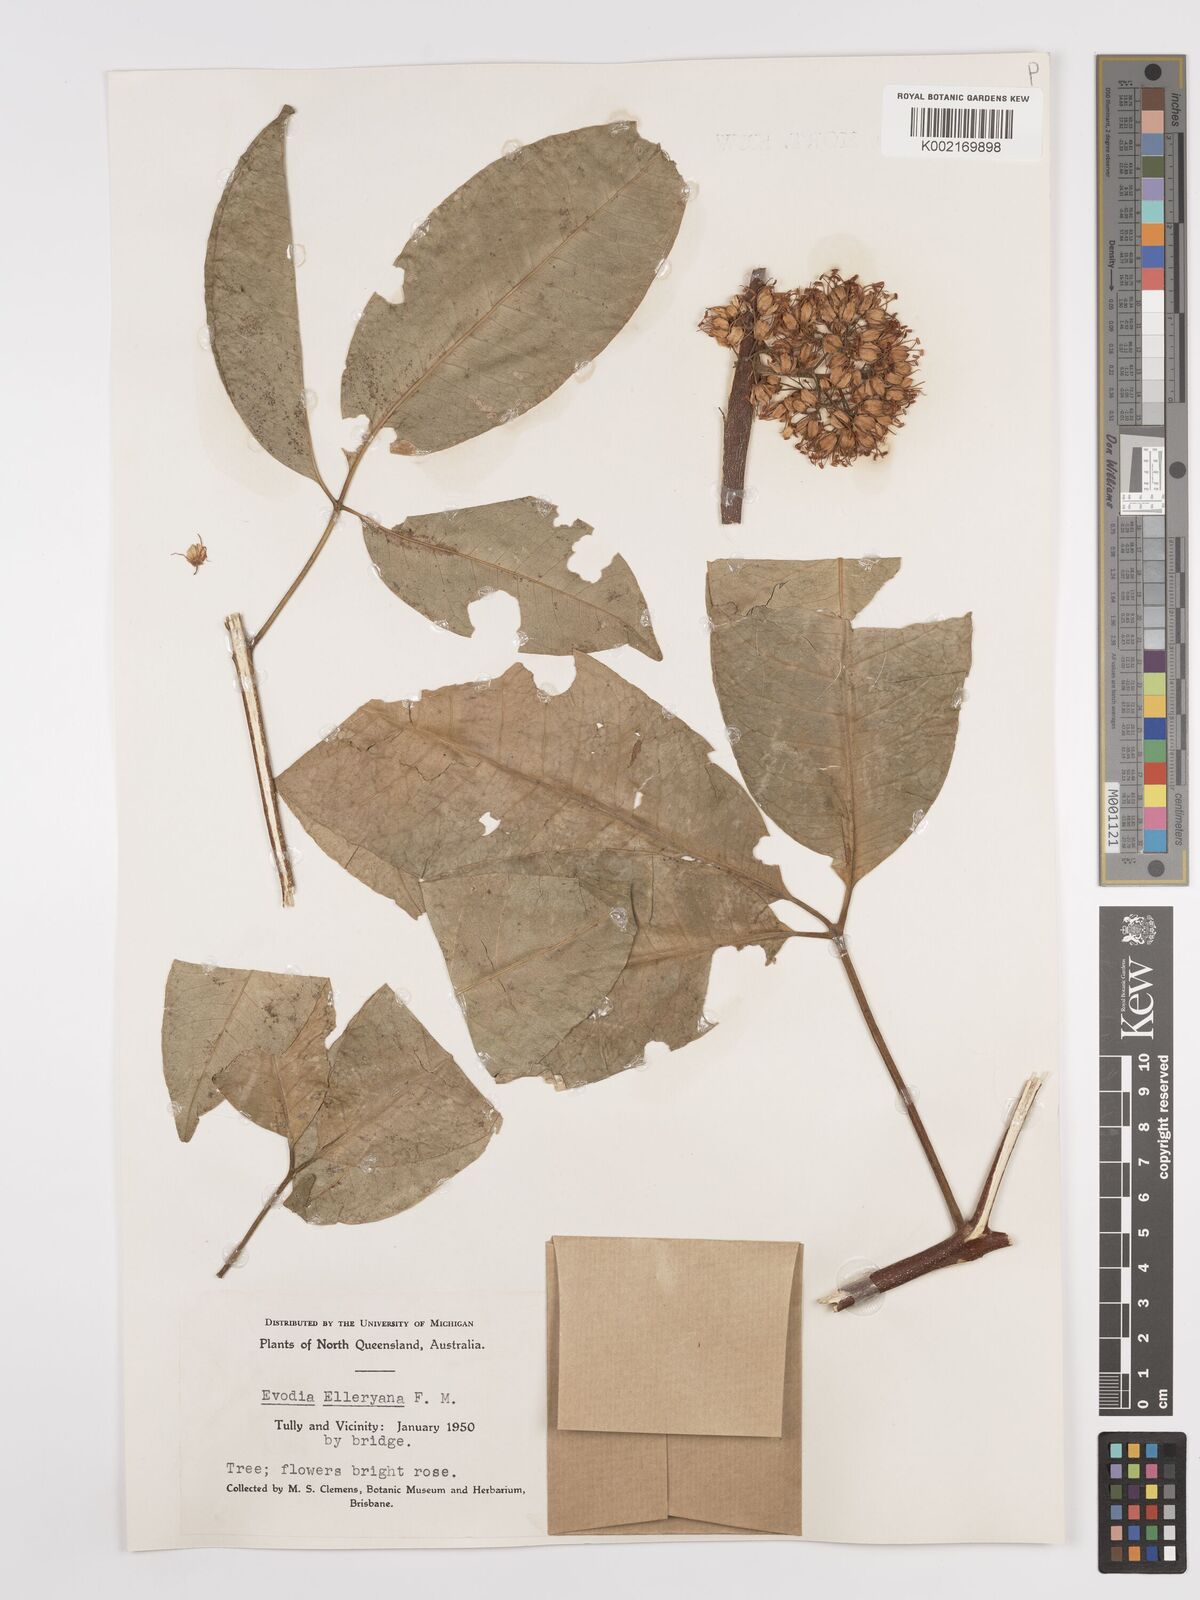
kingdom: Plantae
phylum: Tracheophyta
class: Magnoliopsida
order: Sapindales
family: Rutaceae
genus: Melicope
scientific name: Melicope accedens
